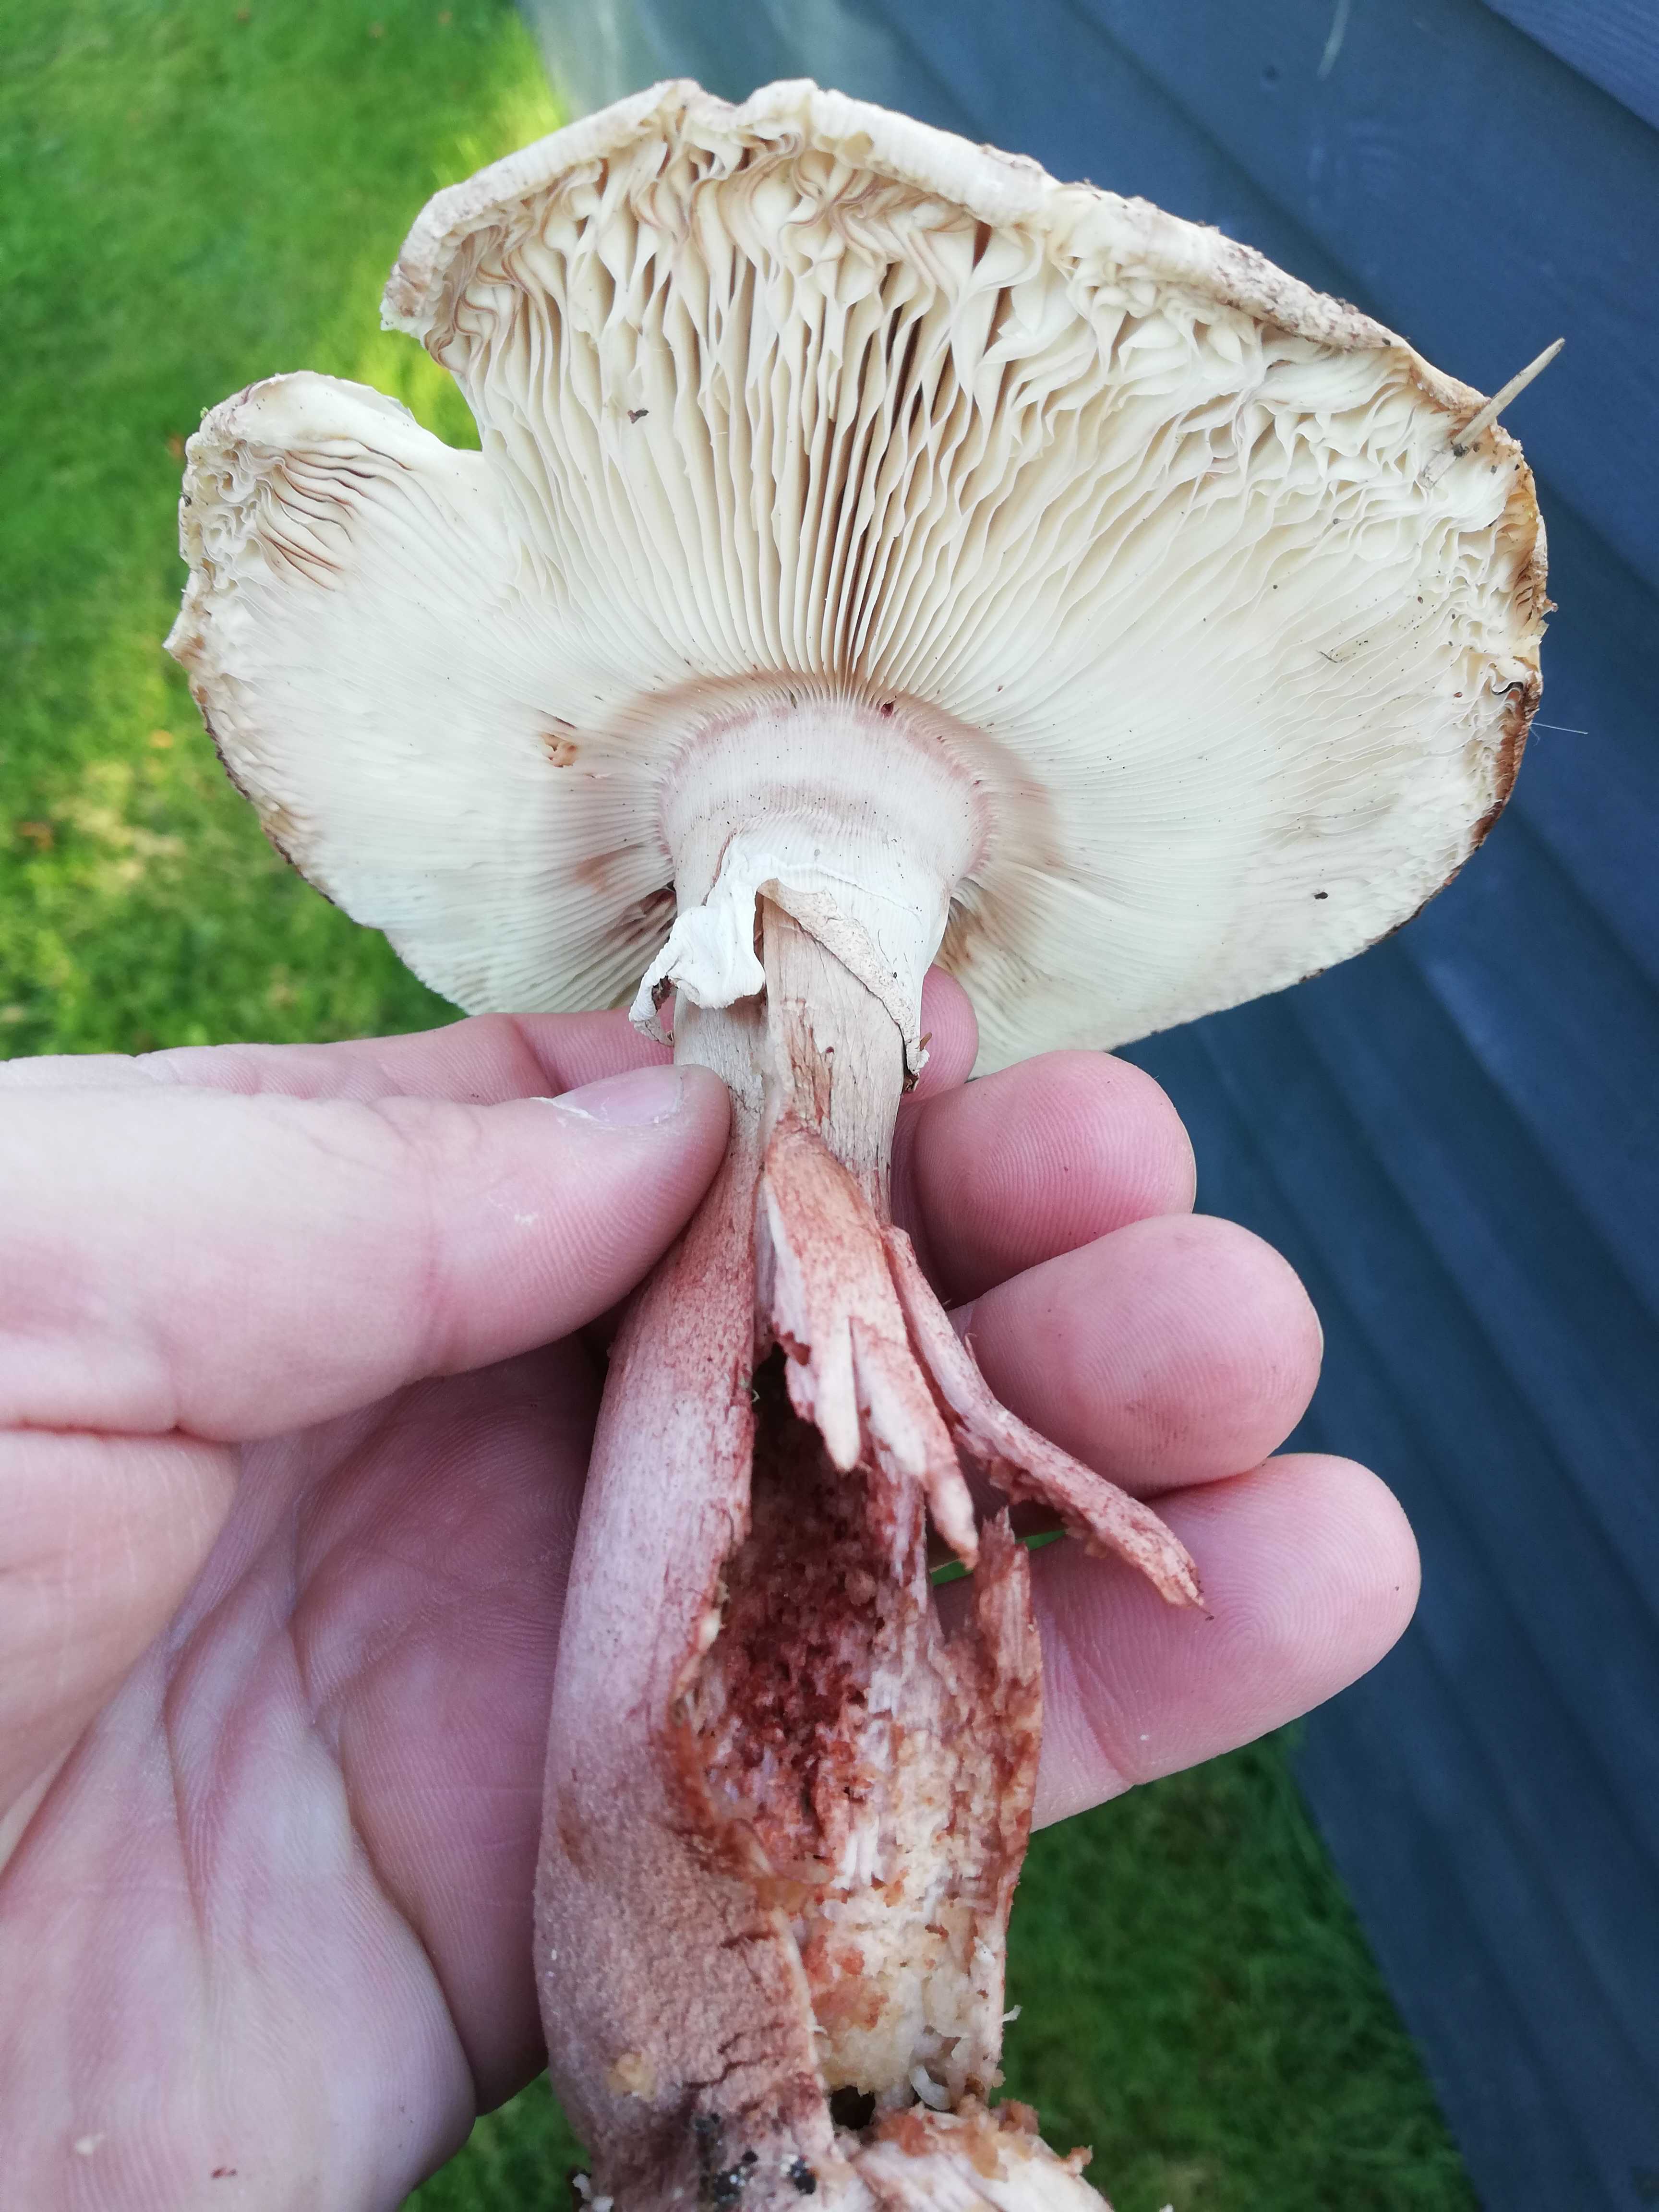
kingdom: Fungi
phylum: Basidiomycota
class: Agaricomycetes
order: Agaricales
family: Amanitaceae
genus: Amanita
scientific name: Amanita rubescens
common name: rødmende fluesvamp
